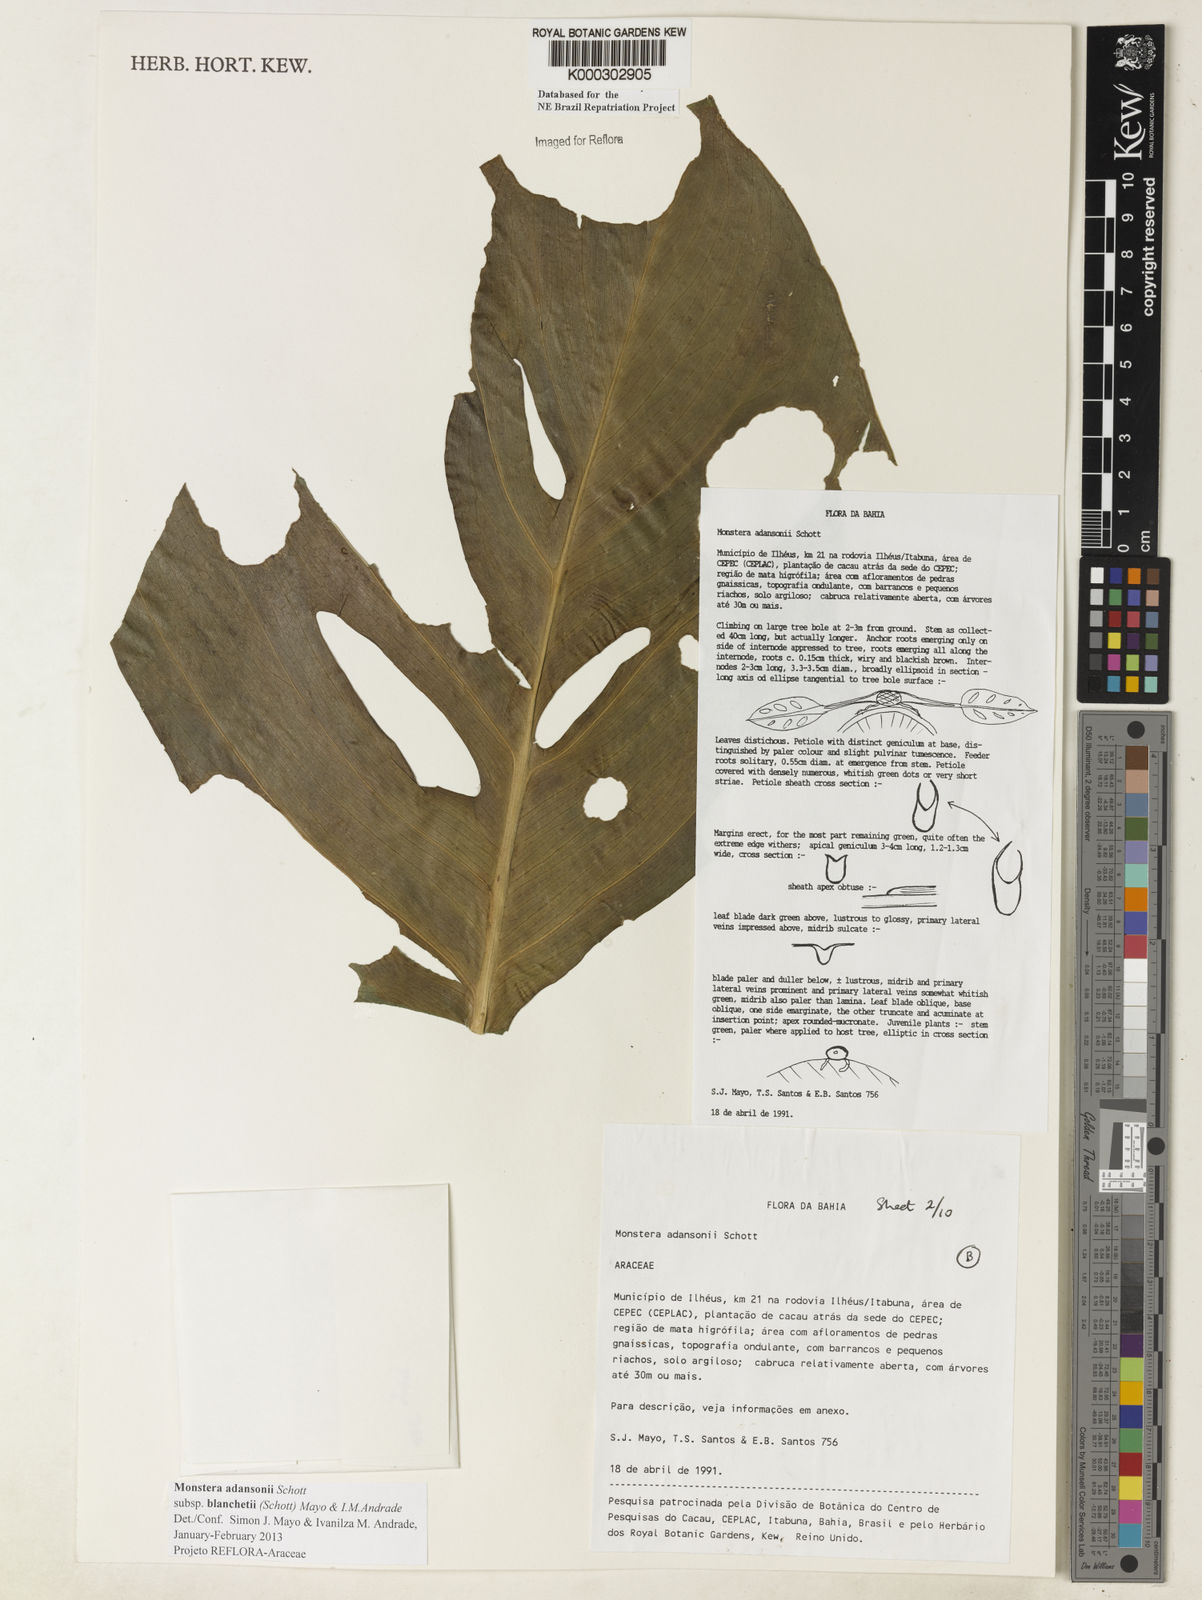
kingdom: Plantae
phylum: Tracheophyta
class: Liliopsida
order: Alismatales
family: Araceae
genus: Monstera
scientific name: Monstera adansonii
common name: Tarovine
